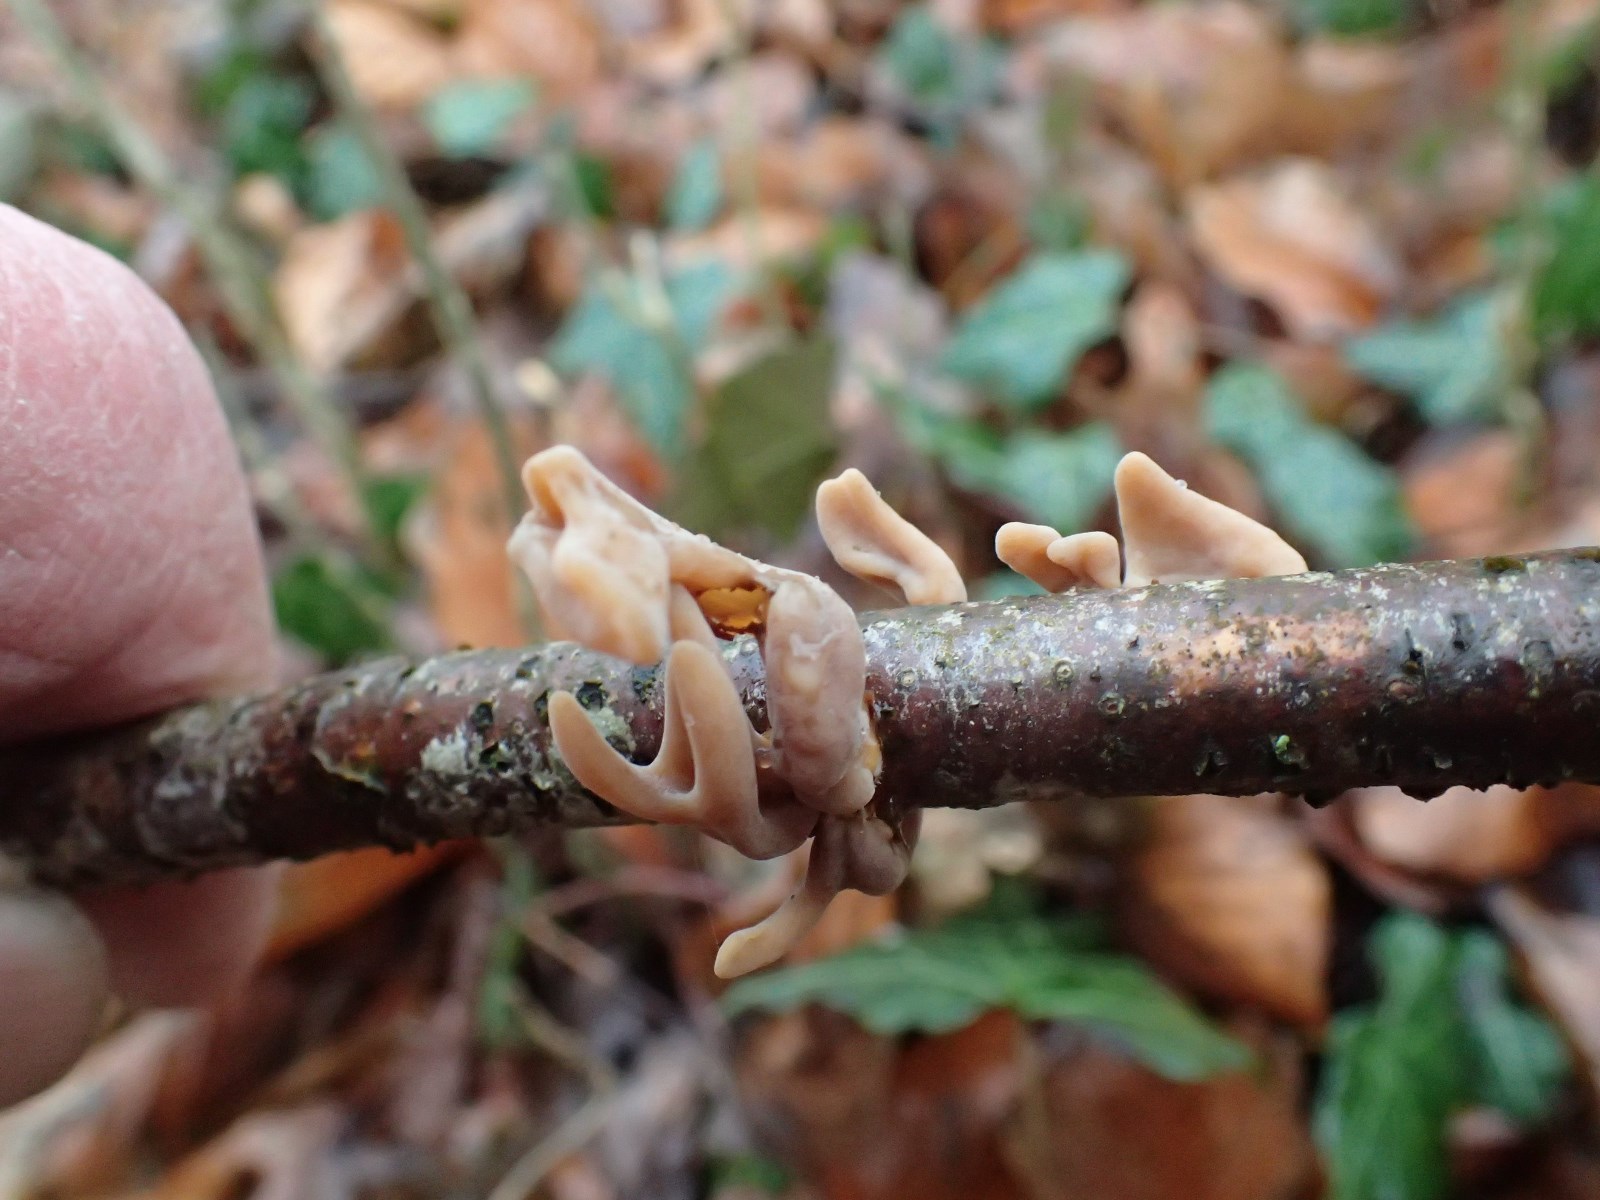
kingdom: Fungi
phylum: Basidiomycota
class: Agaricomycetes
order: Agaricales
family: Typhulaceae
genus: Typhula
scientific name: Typhula fistulosa
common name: pibet rørkølle
